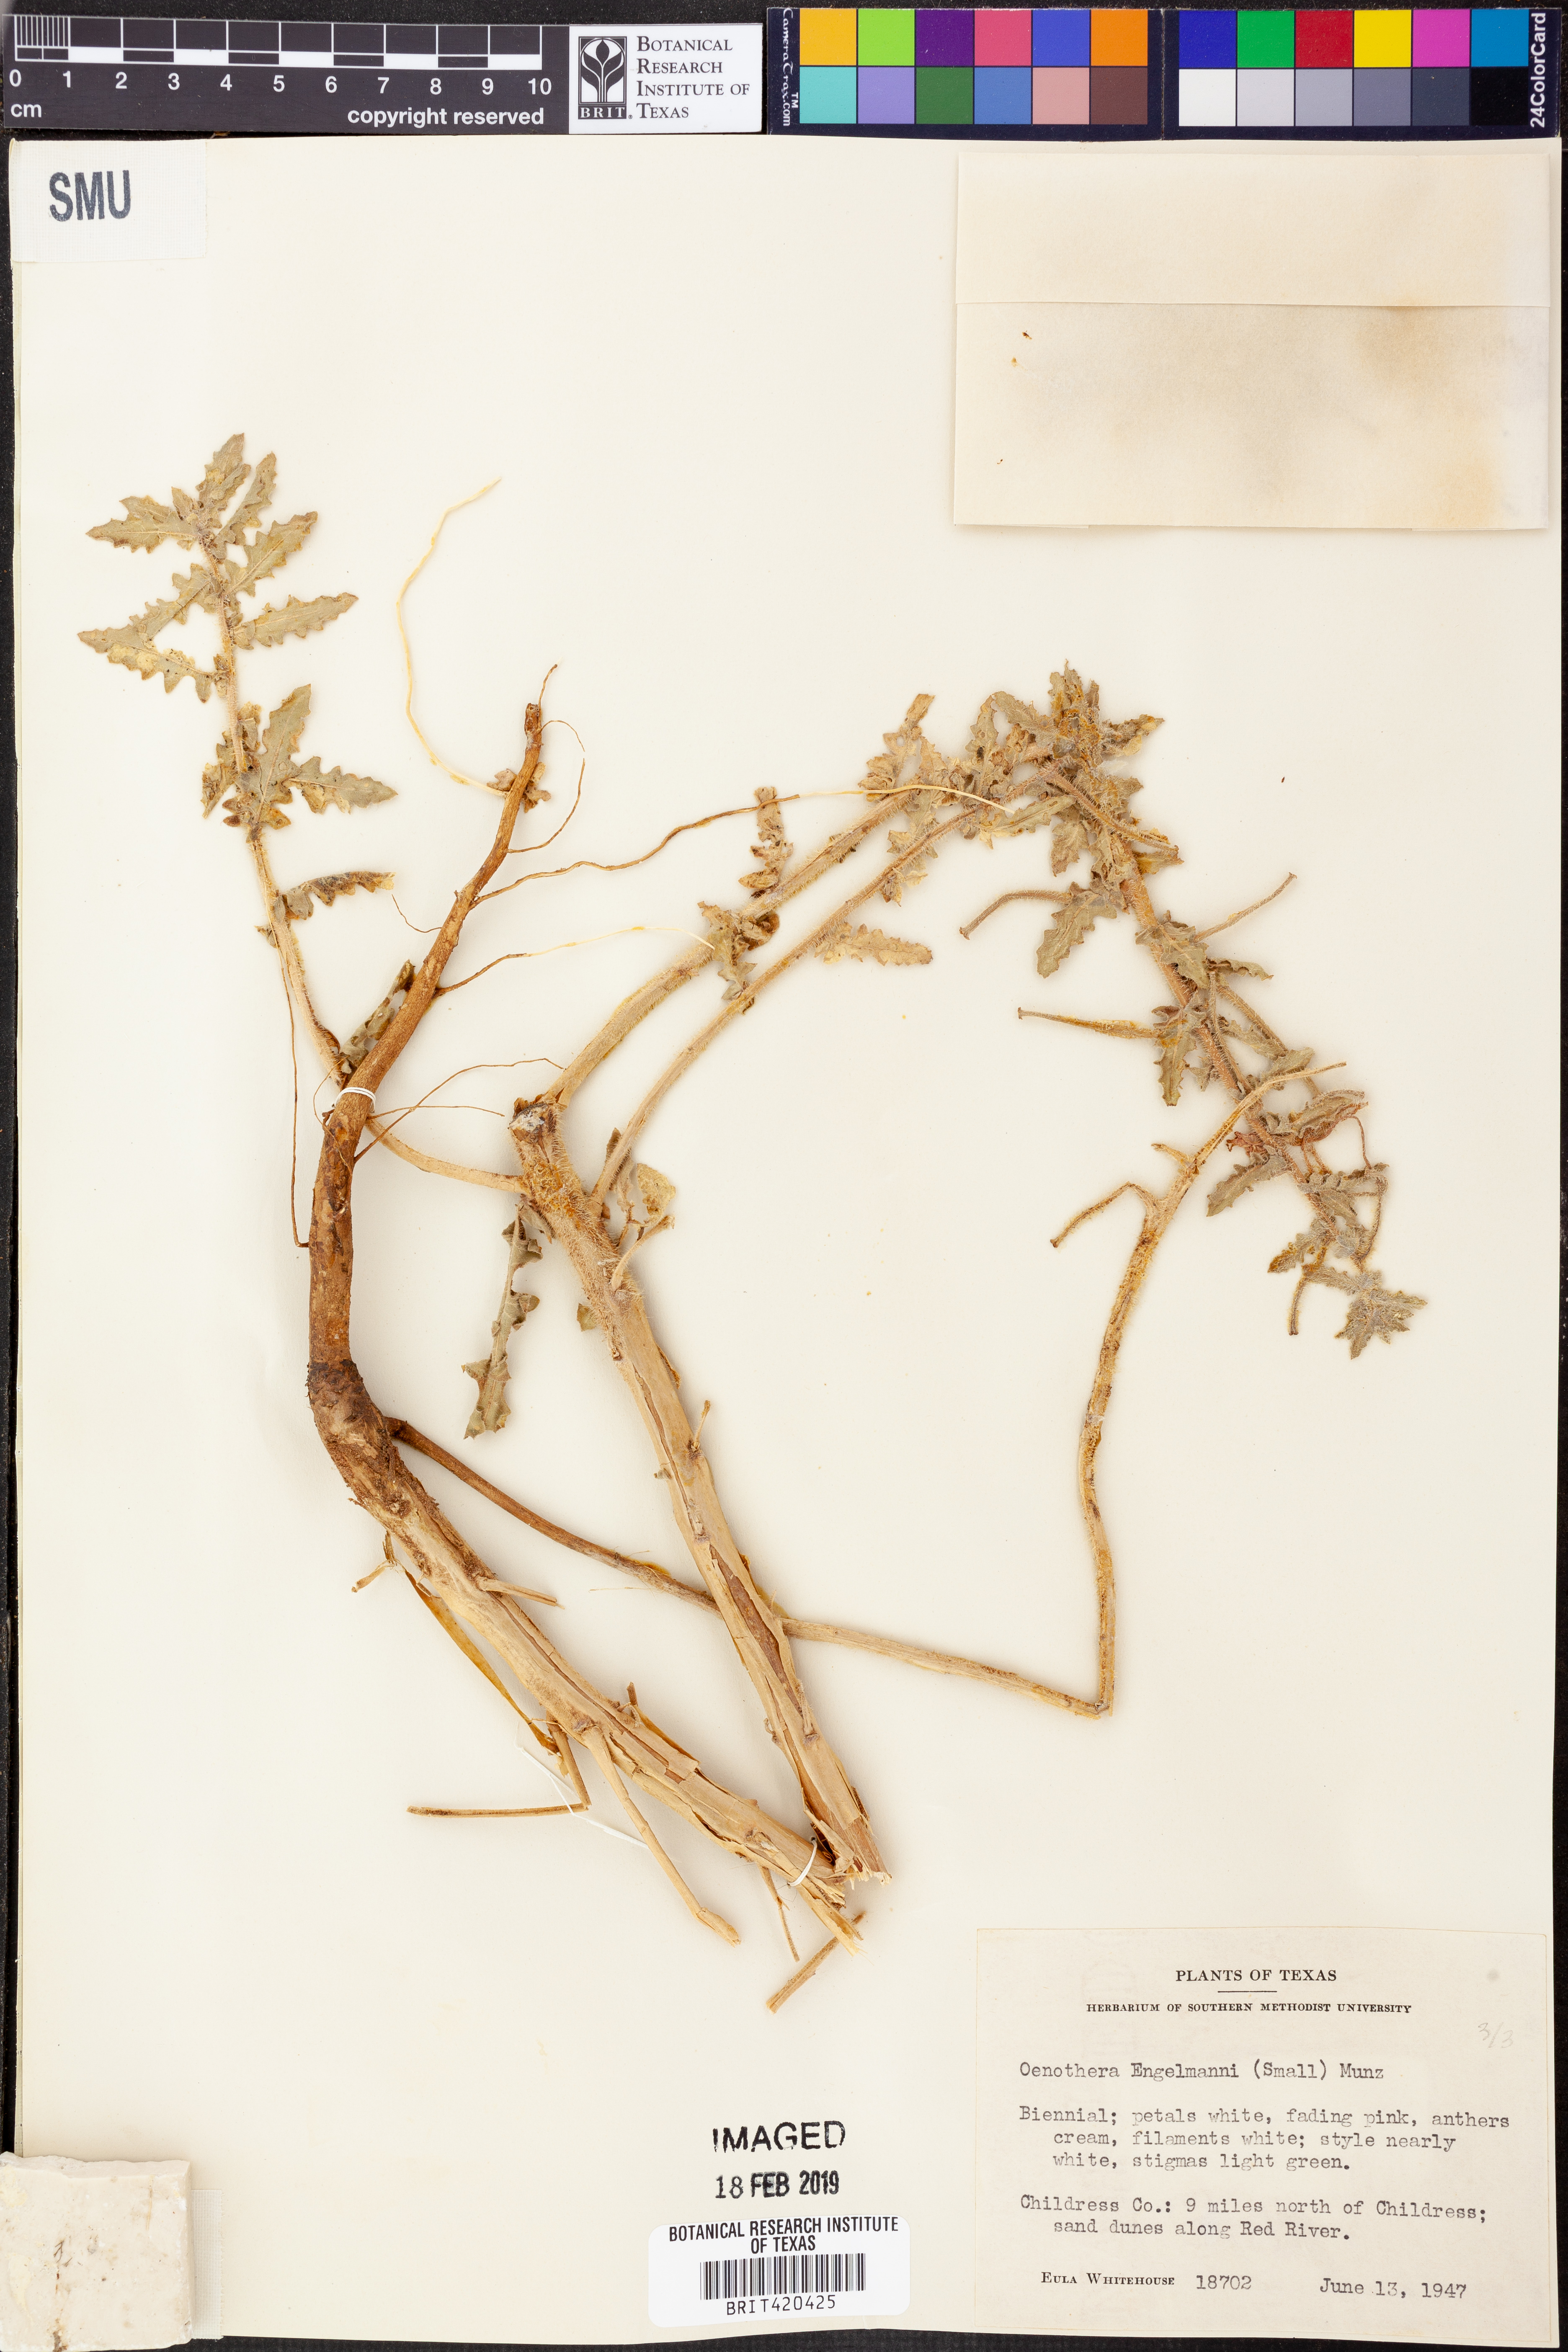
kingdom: Plantae
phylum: Tracheophyta
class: Magnoliopsida
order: Myrtales
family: Onagraceae
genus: Oenothera
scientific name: Oenothera engelmannii
